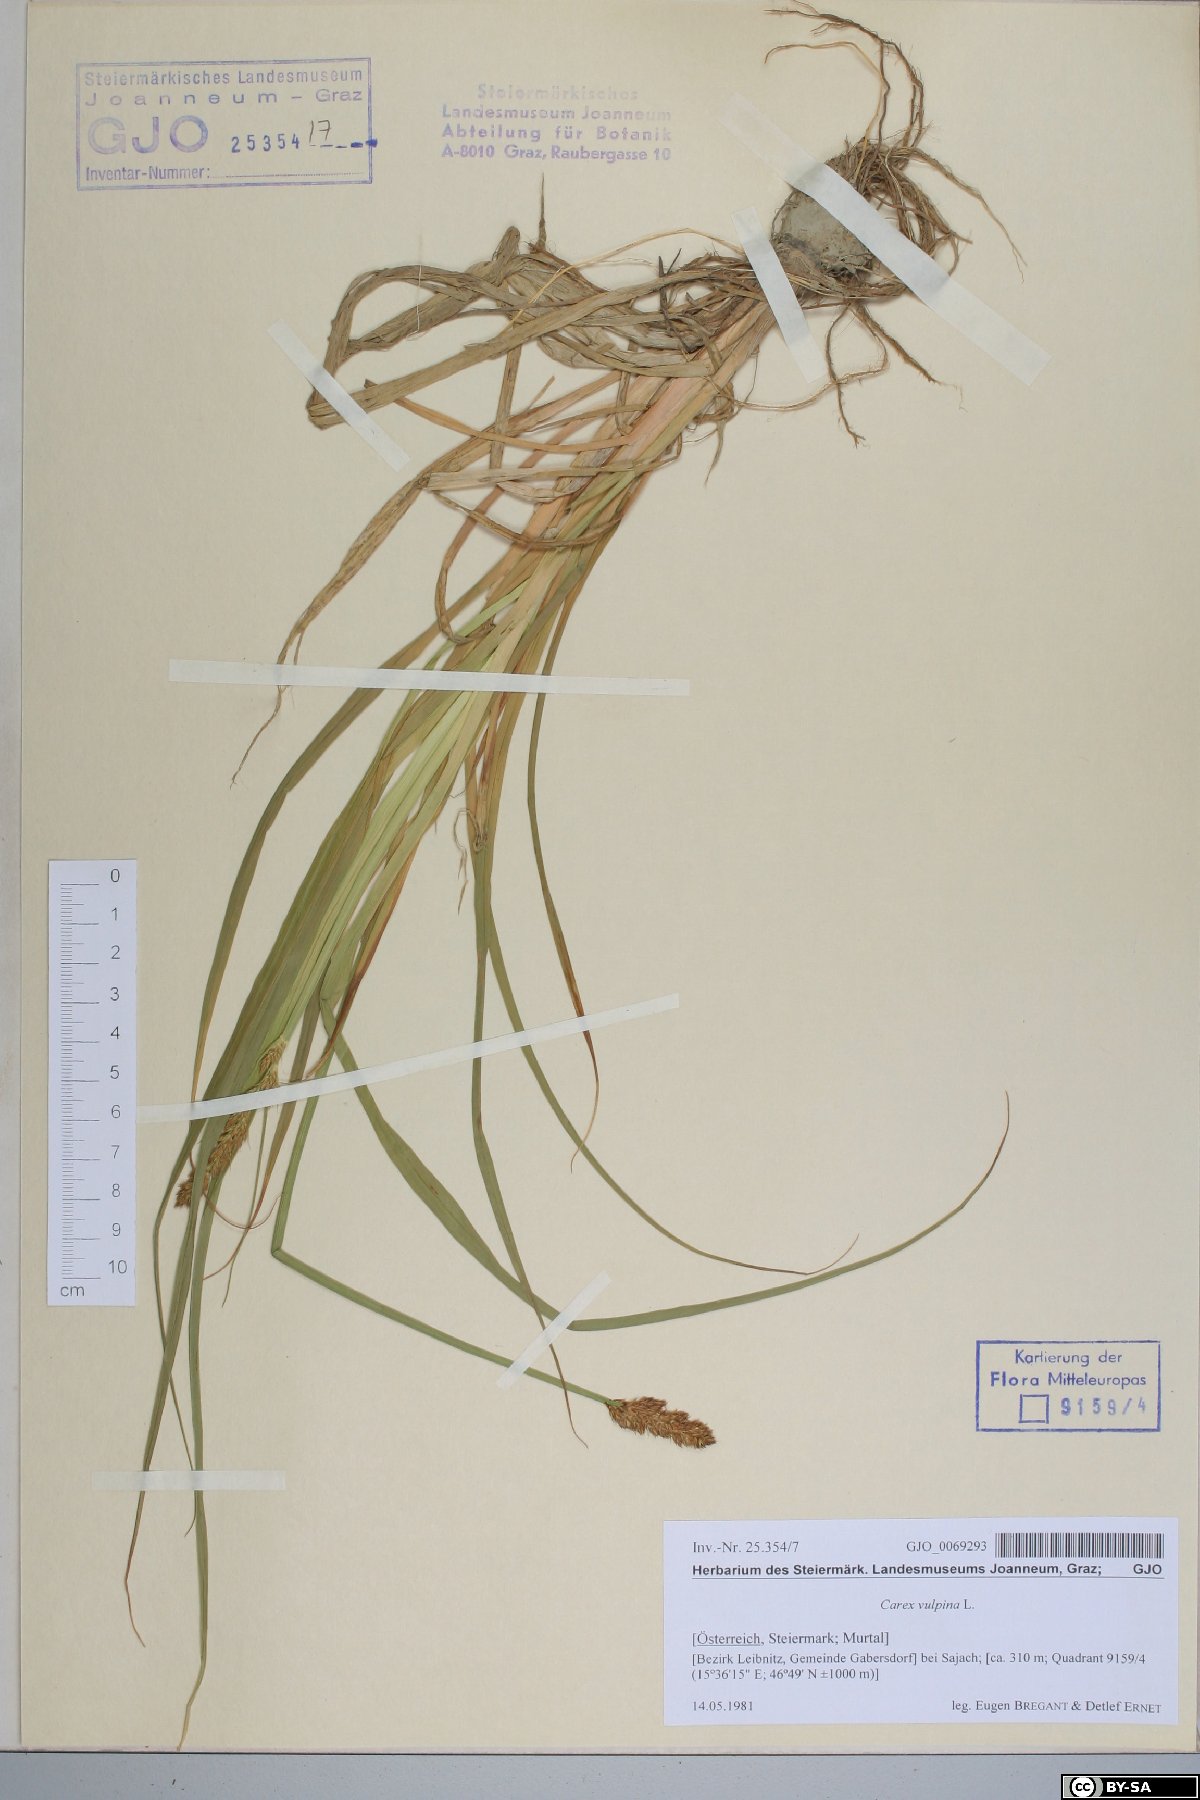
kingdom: Plantae
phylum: Tracheophyta
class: Liliopsida
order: Poales
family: Cyperaceae
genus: Carex
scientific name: Carex vulpina
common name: True fox-sedge
